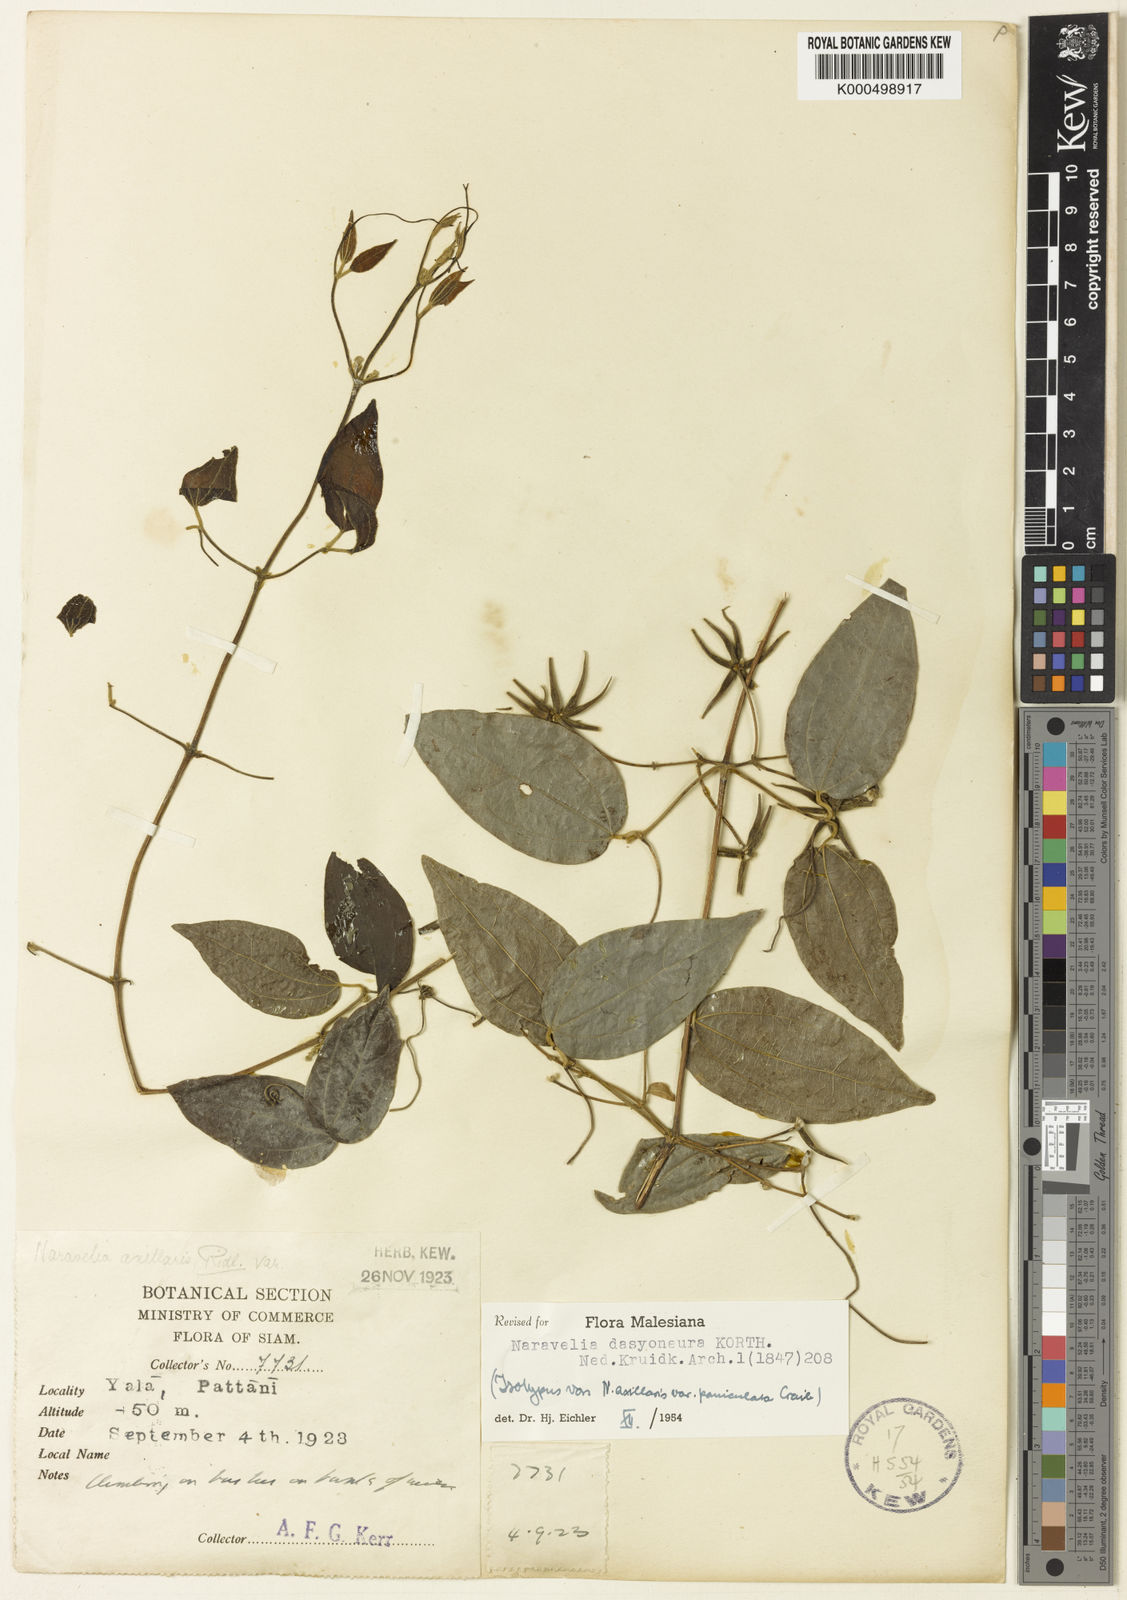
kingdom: Plantae
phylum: Tracheophyta
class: Magnoliopsida
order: Ranunculales
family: Ranunculaceae
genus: Clematis
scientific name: Clematis dasyoneura
